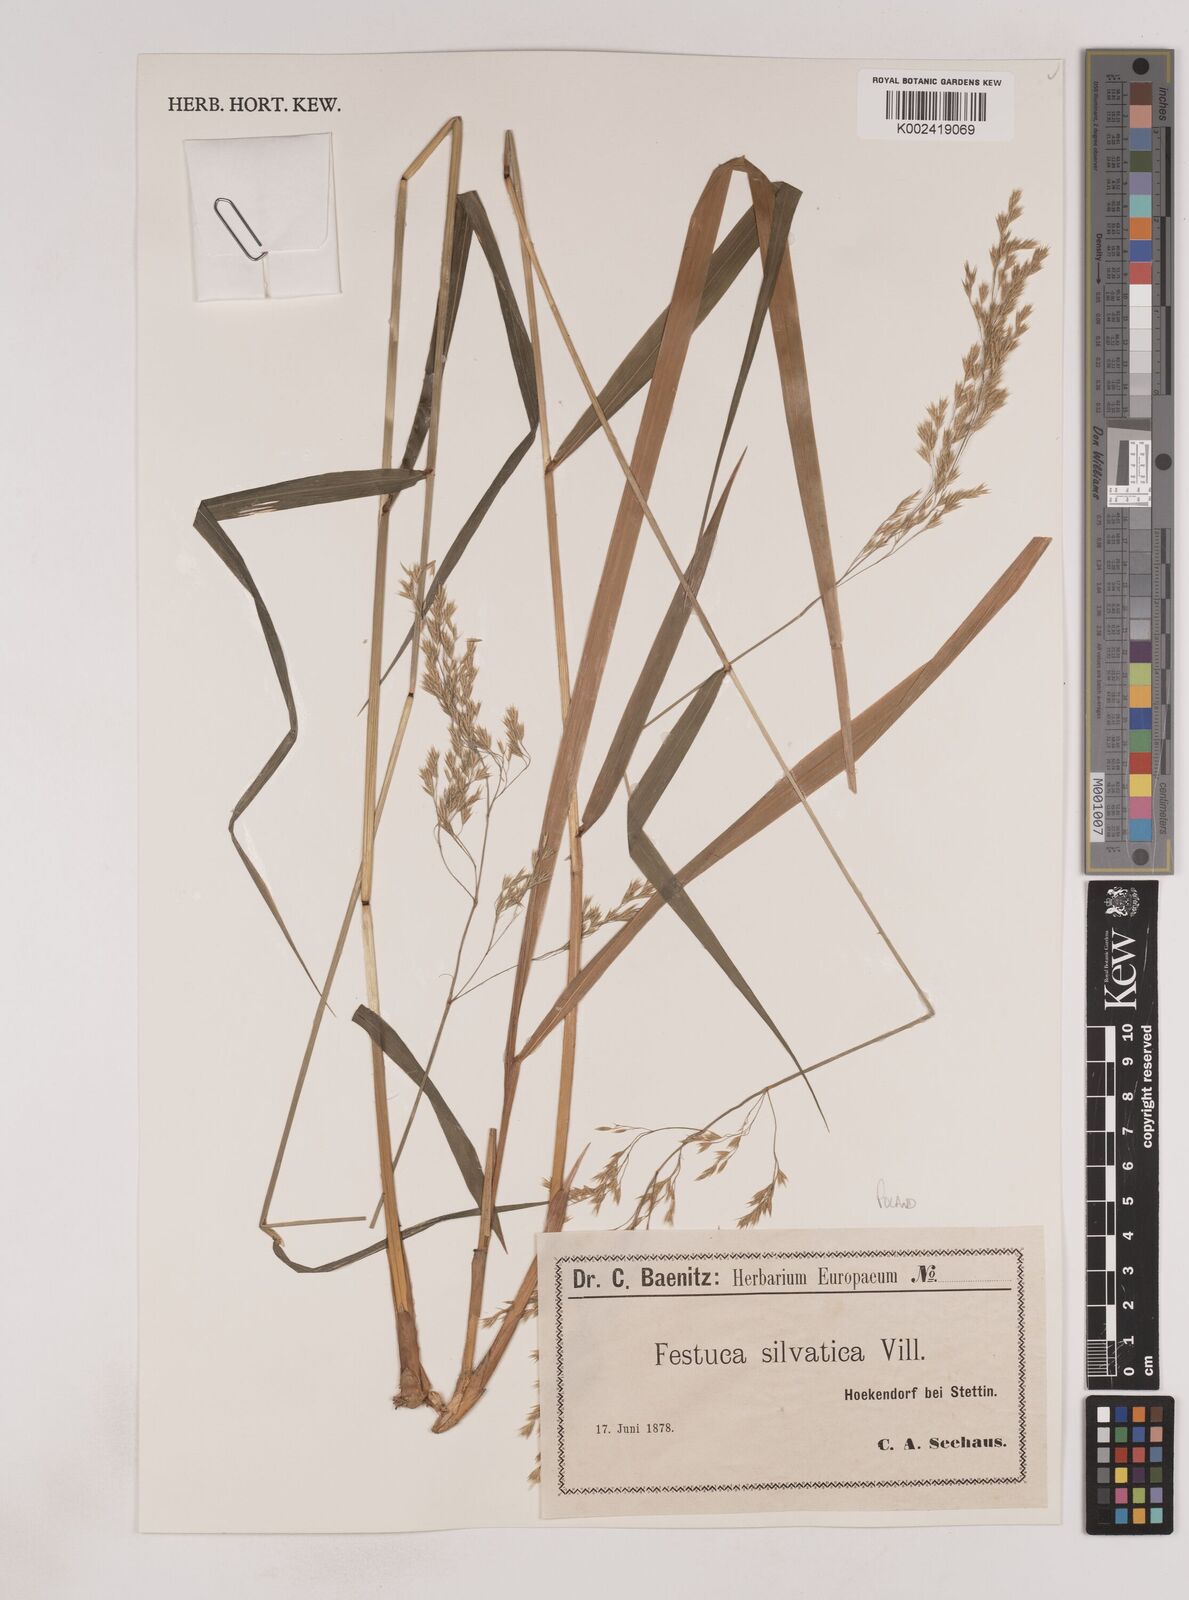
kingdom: Plantae
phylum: Tracheophyta
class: Liliopsida
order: Poales
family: Poaceae
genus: Festuca
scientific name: Festuca drymeja
